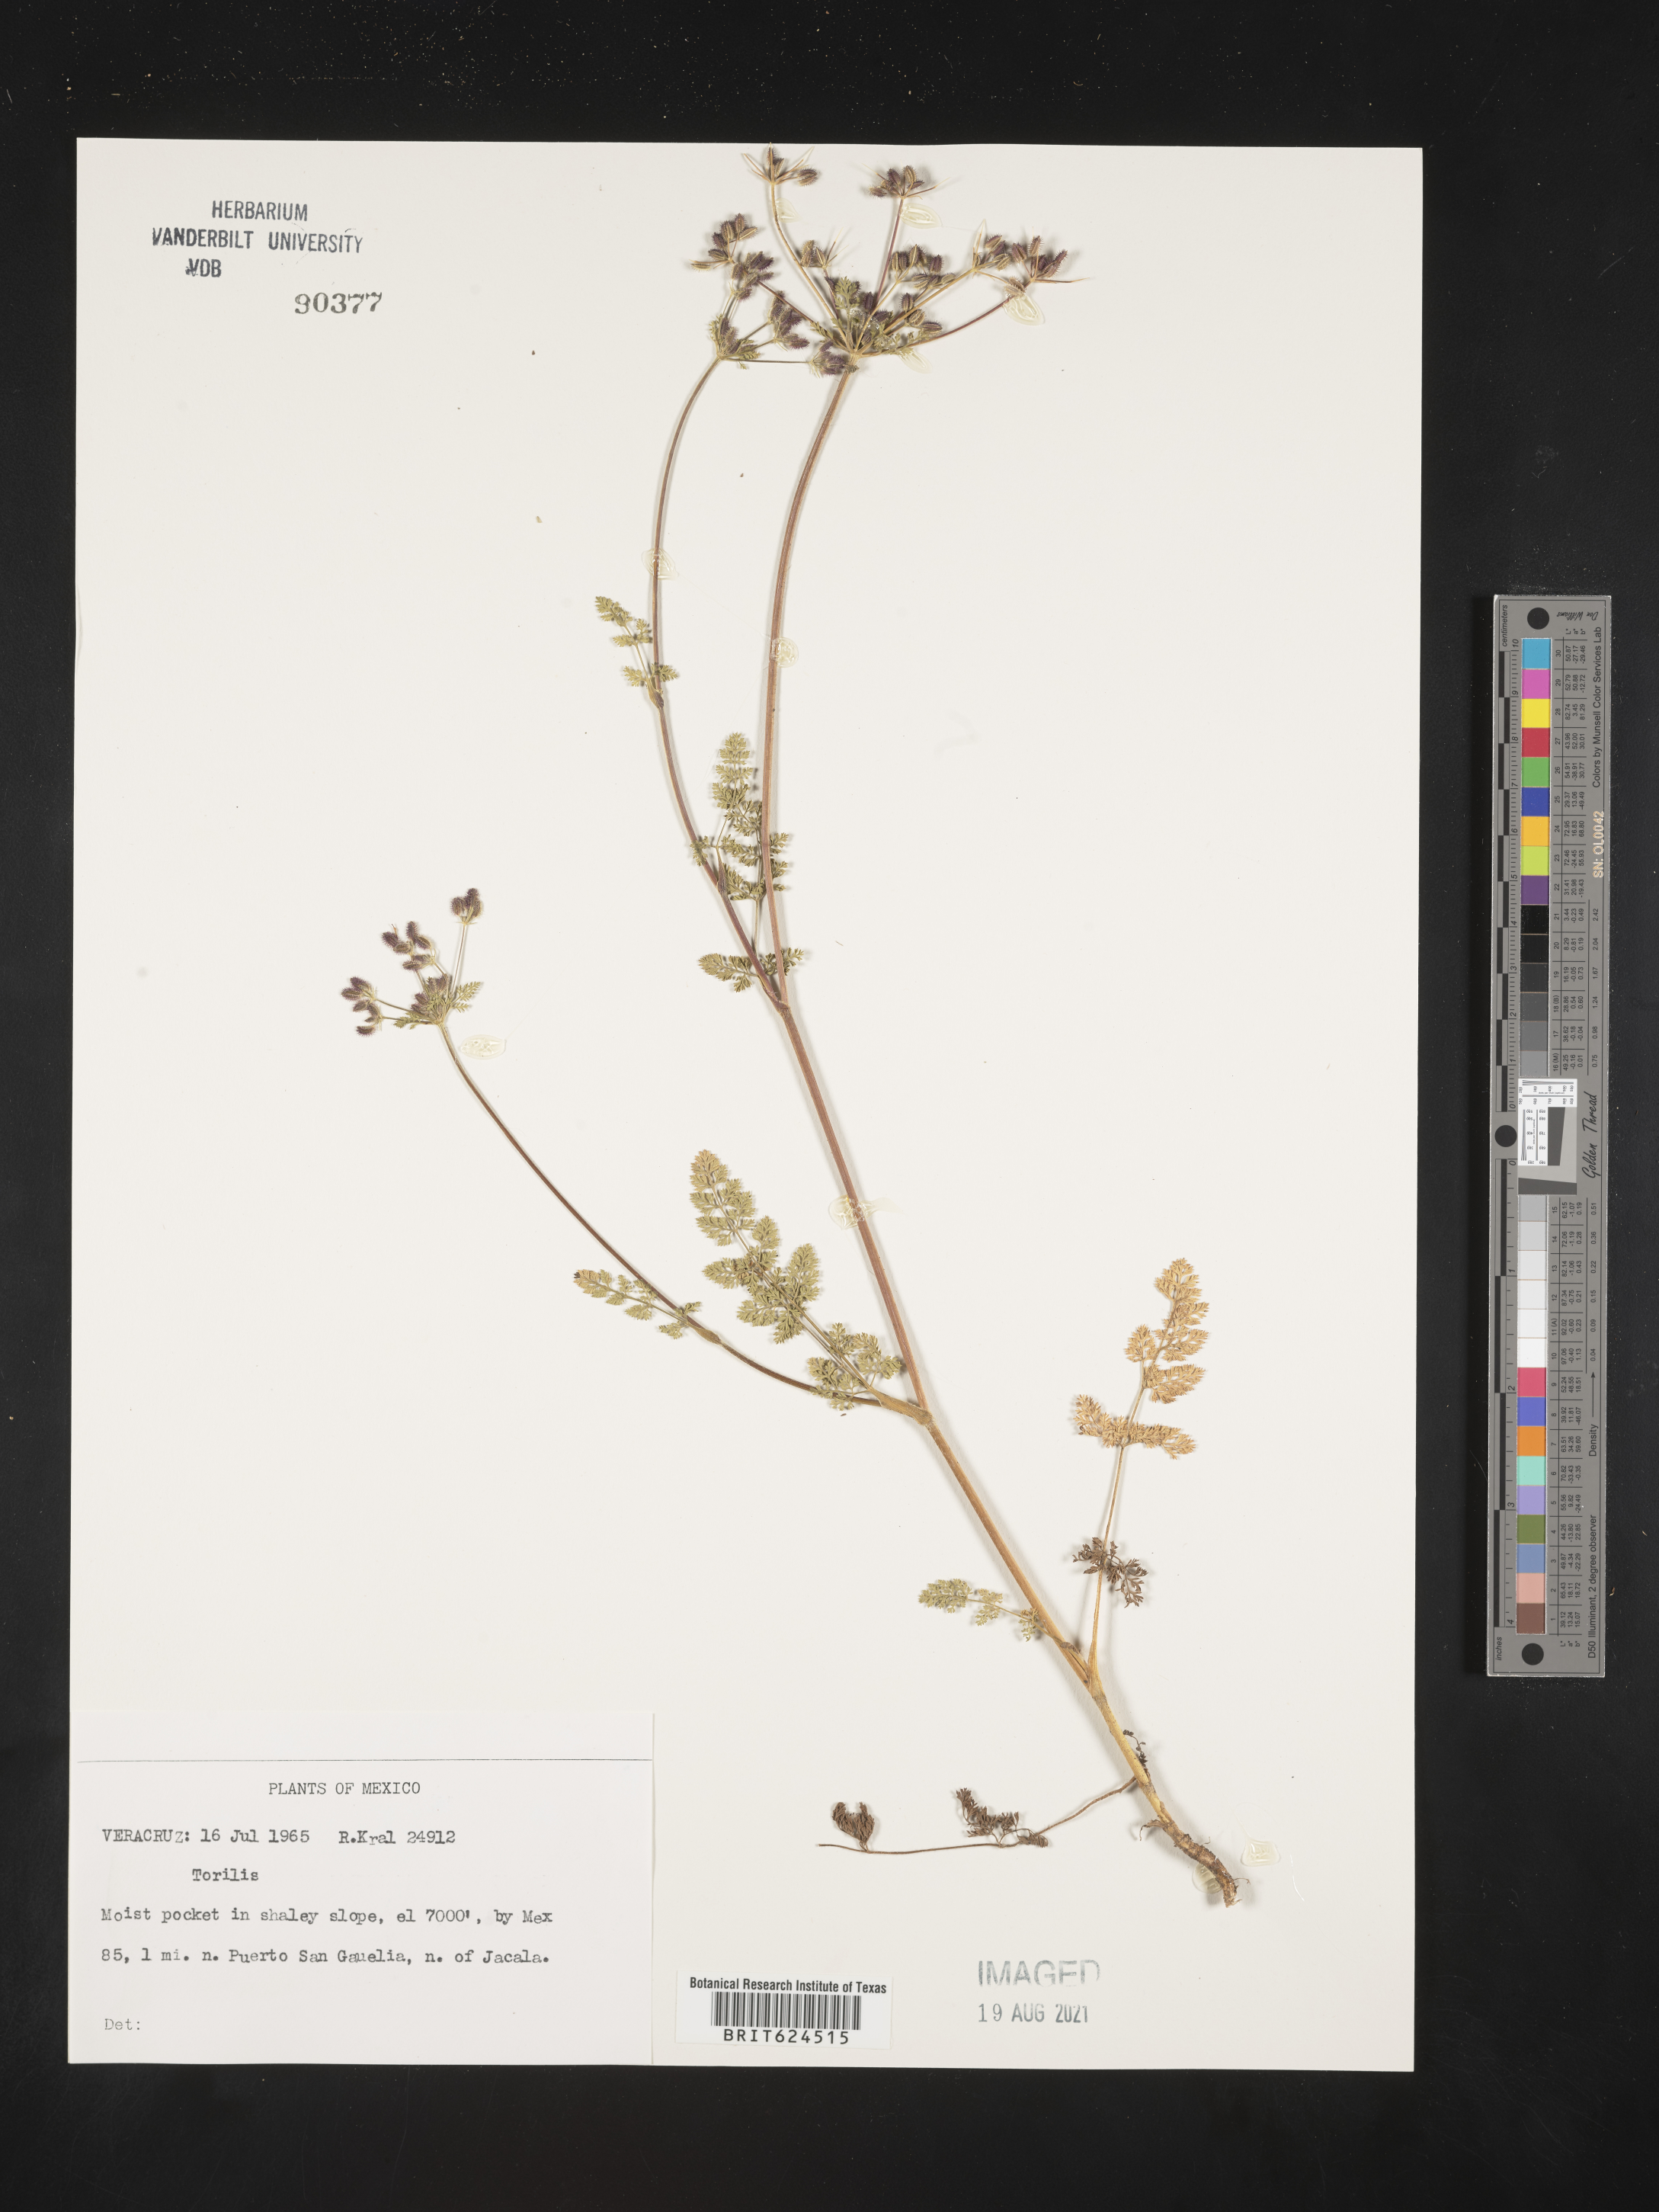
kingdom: Plantae
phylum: Tracheophyta
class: Magnoliopsida
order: Apiales
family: Apiaceae
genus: Torilis
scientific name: Torilis
